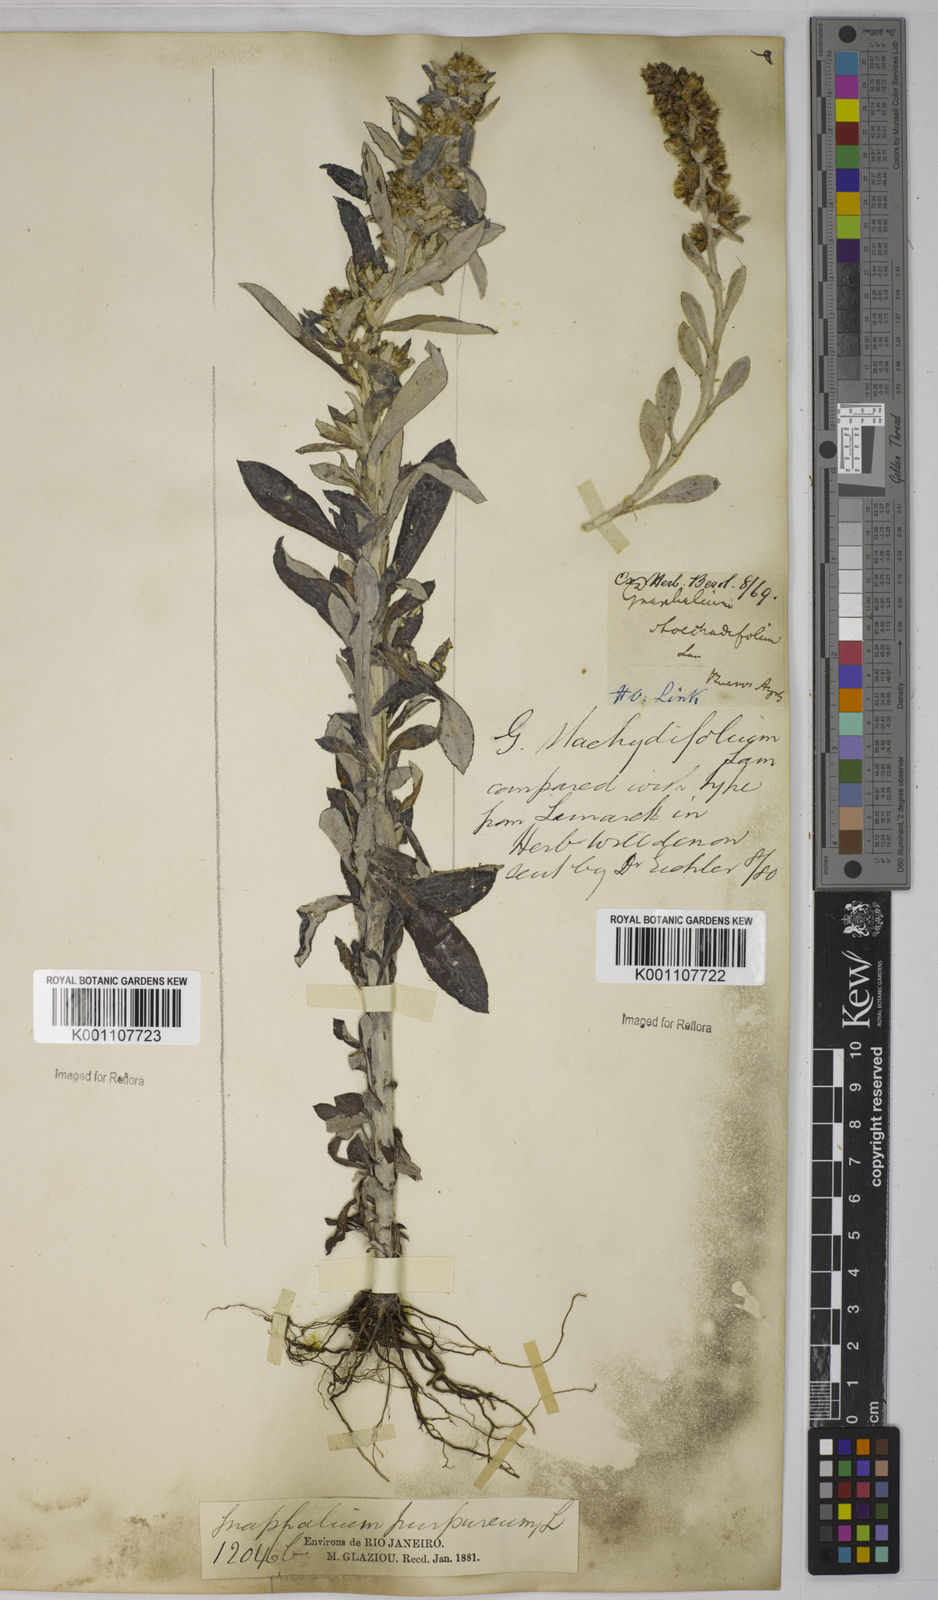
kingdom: Plantae
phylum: Tracheophyta
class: Magnoliopsida
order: Asterales
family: Asteraceae
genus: Gnaphalium
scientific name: Gnaphalium
